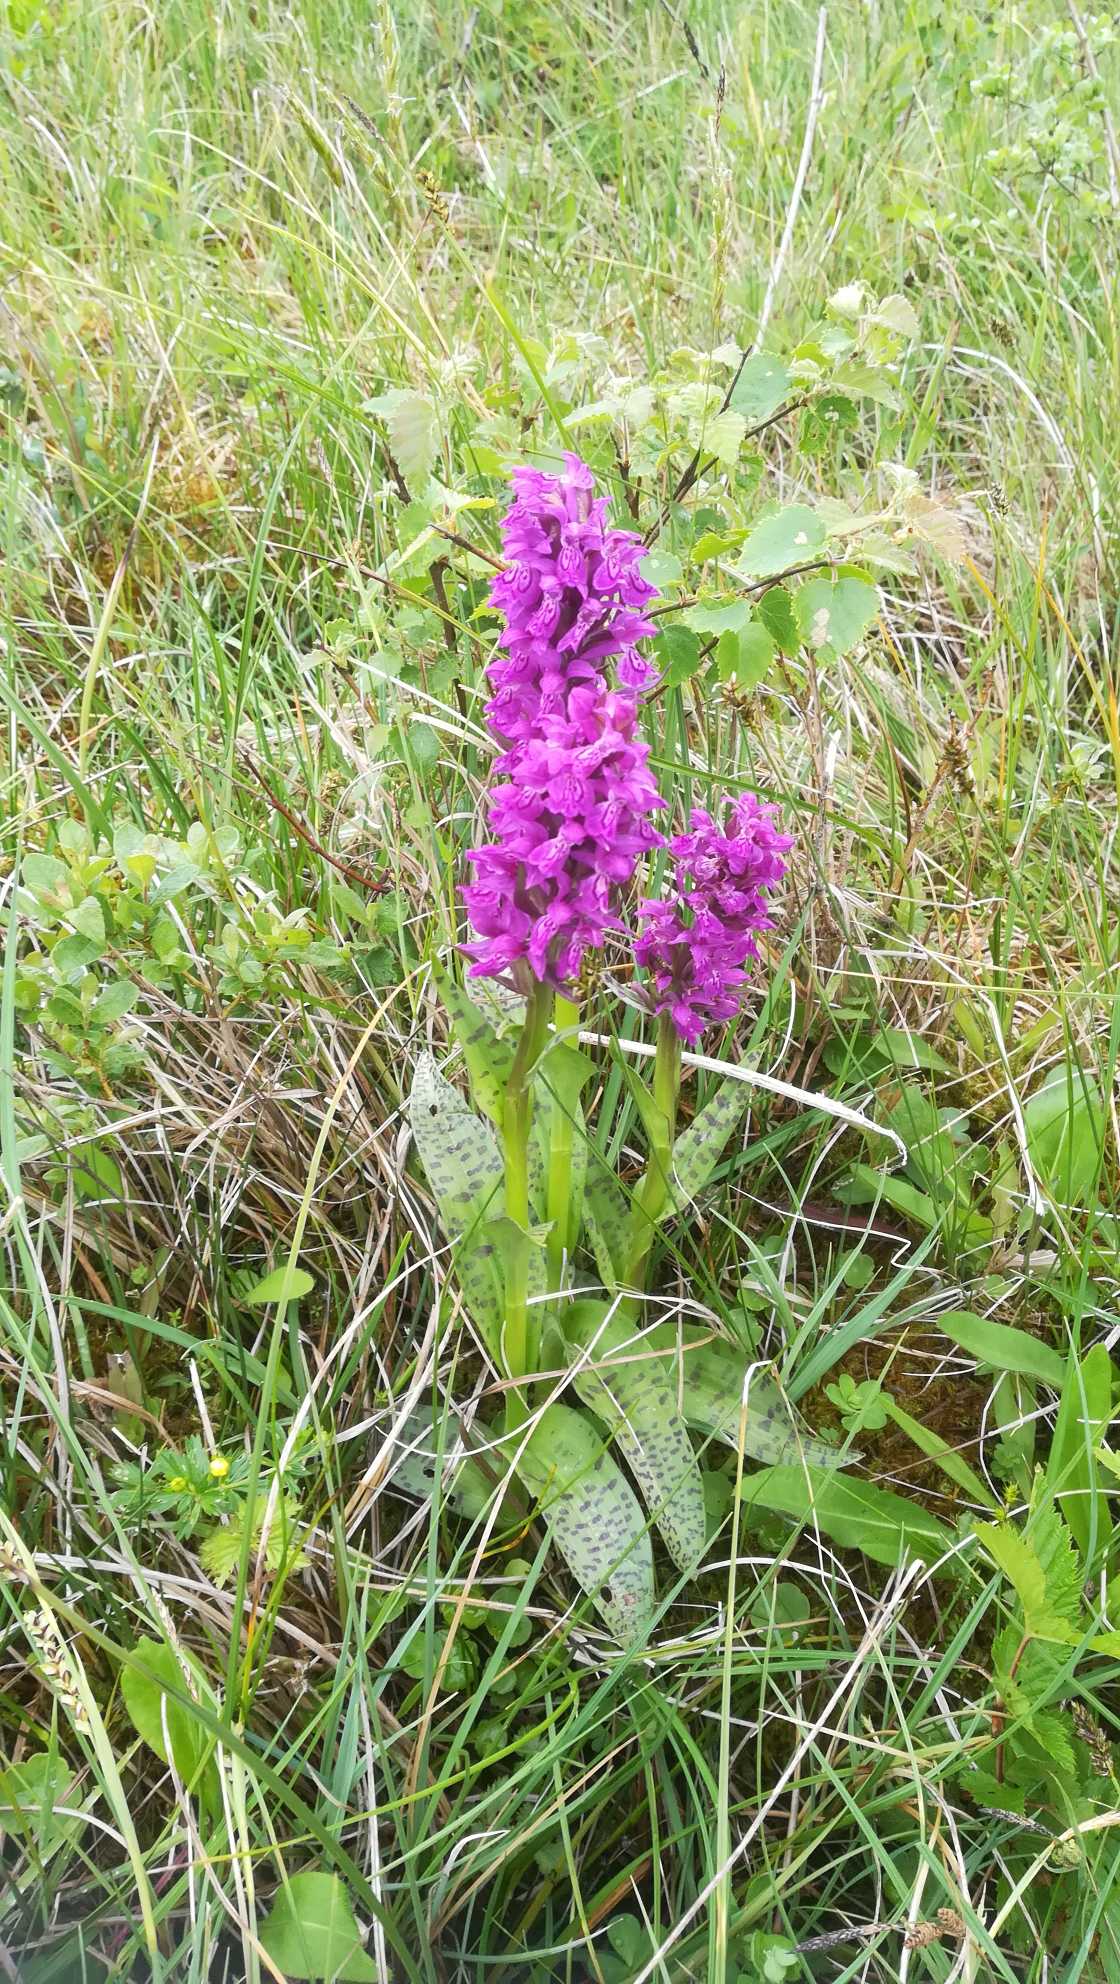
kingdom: Plantae
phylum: Tracheophyta
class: Liliopsida
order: Asparagales
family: Orchidaceae
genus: Dactylorhiza
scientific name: Dactylorhiza majalis
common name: Maj-gøgeurt
